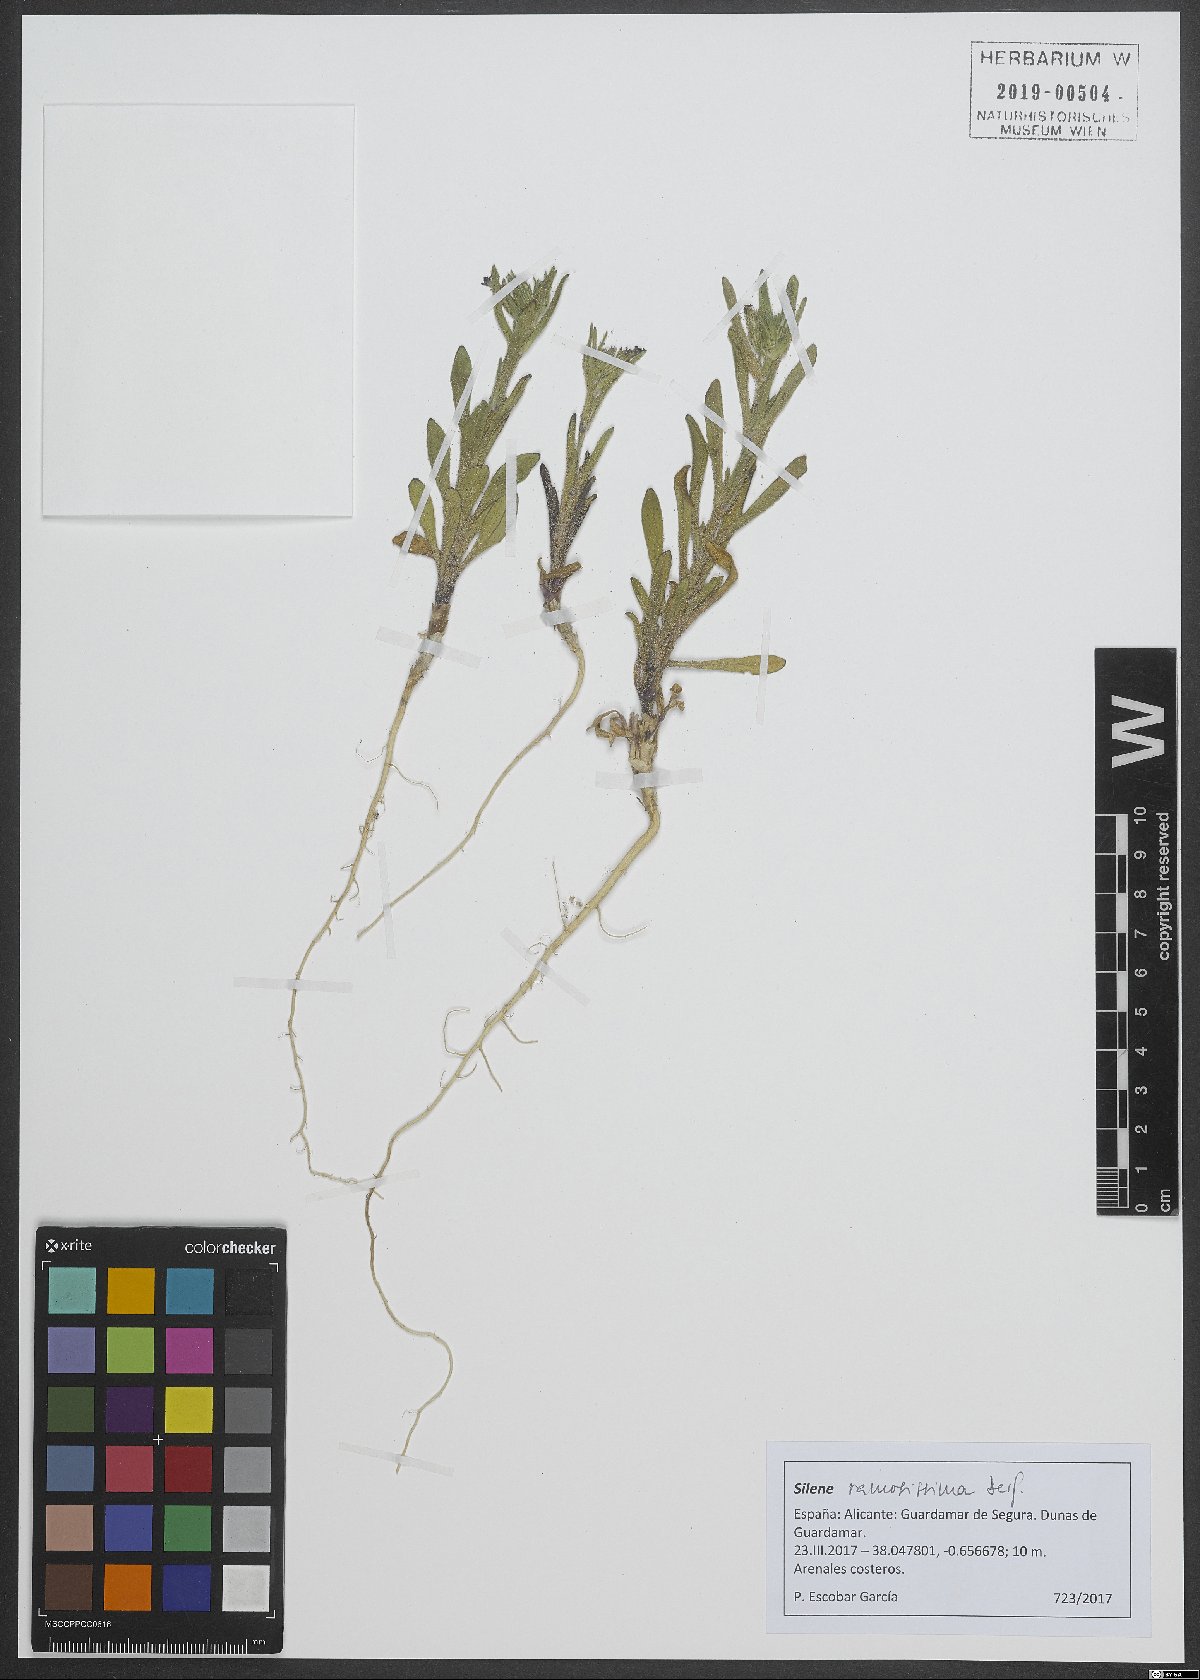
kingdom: Plantae
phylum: Tracheophyta
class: Magnoliopsida
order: Caryophyllales
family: Caryophyllaceae
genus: Silene
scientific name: Silene ramosissima
